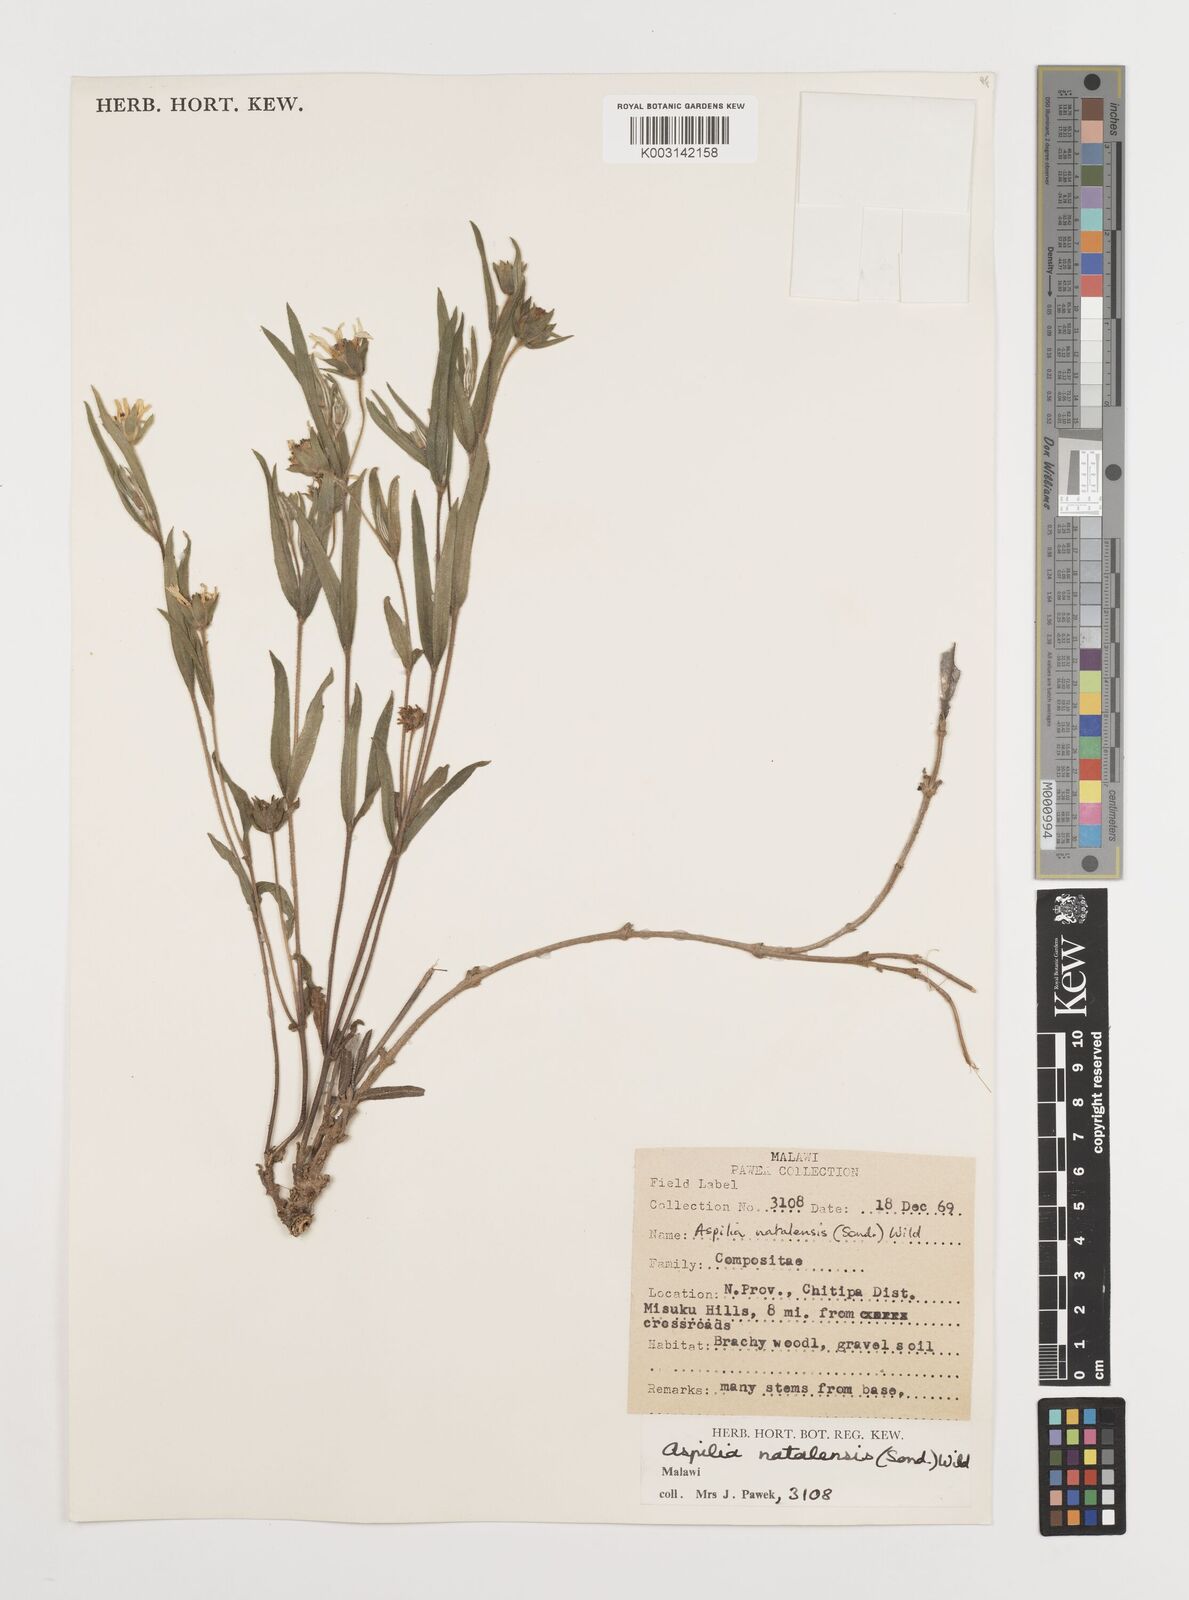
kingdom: Plantae
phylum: Tracheophyta
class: Magnoliopsida
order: Asterales
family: Asteraceae
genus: Aspilia
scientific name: Aspilia natalensis
